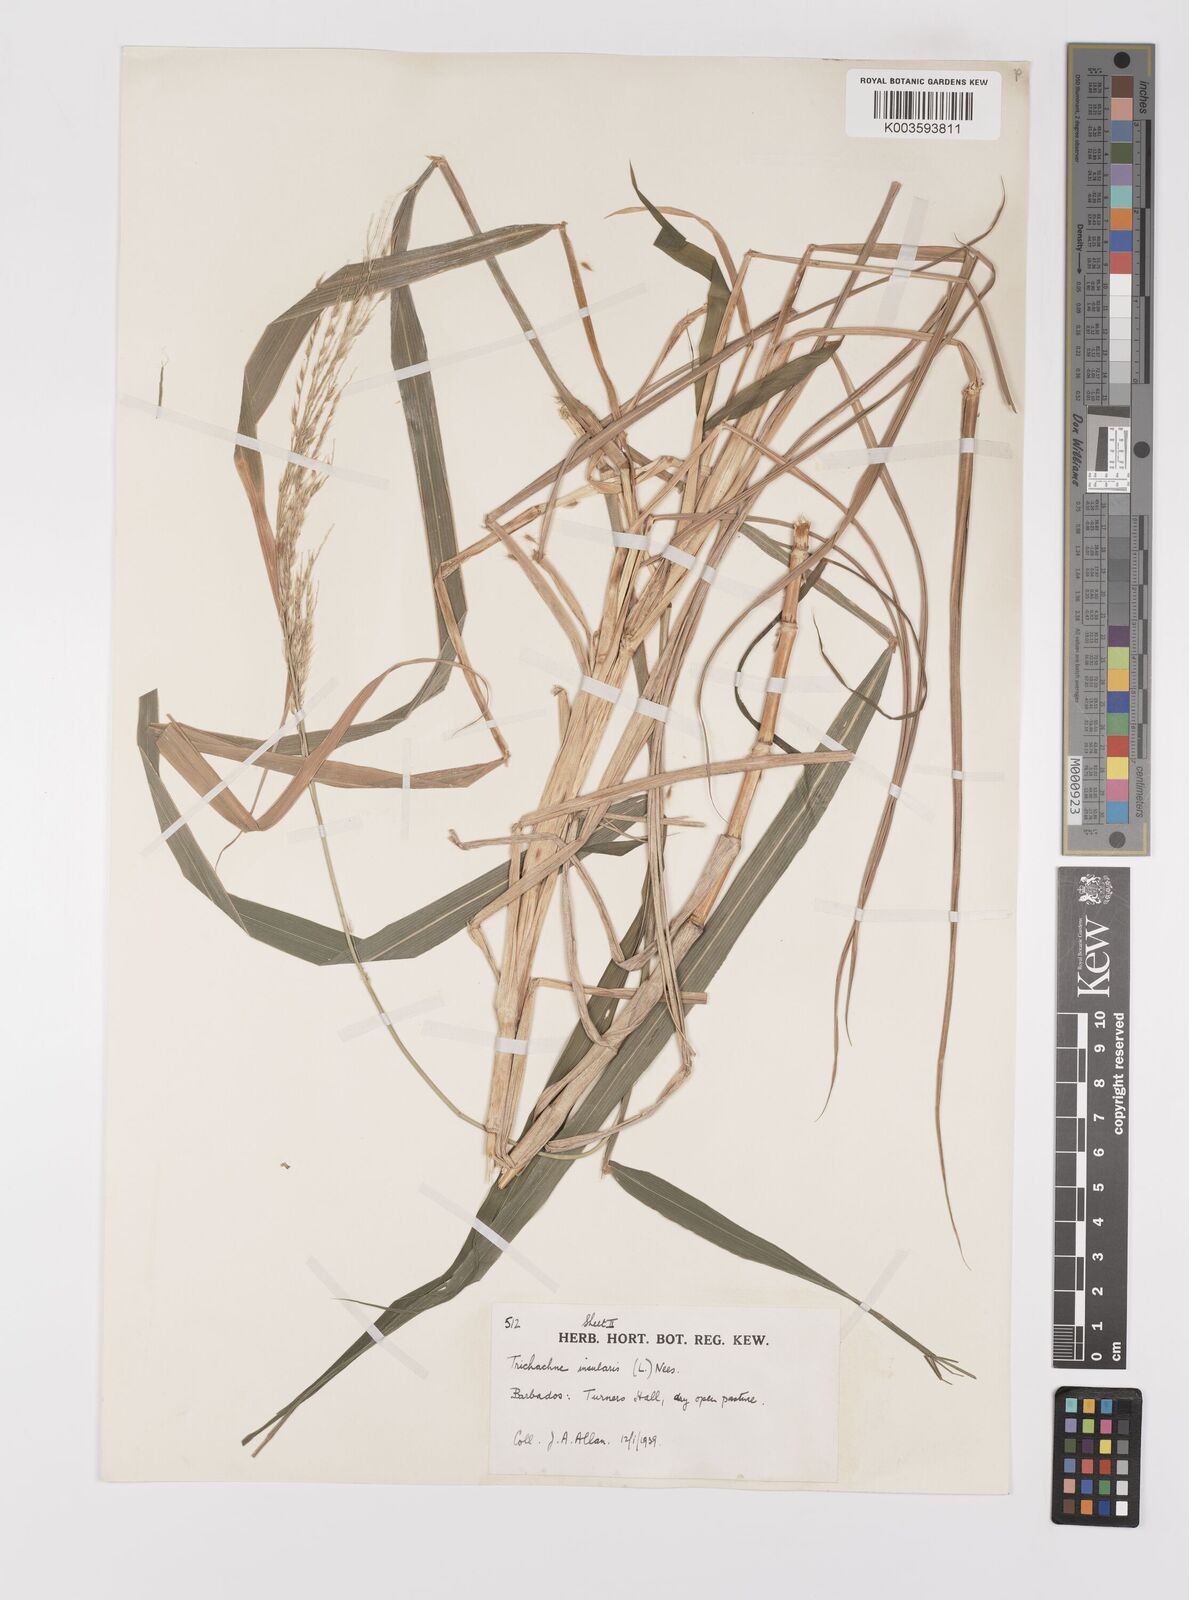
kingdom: Plantae
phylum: Tracheophyta
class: Liliopsida
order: Poales
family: Poaceae
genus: Digitaria
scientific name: Digitaria insularis
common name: Sourgrass
